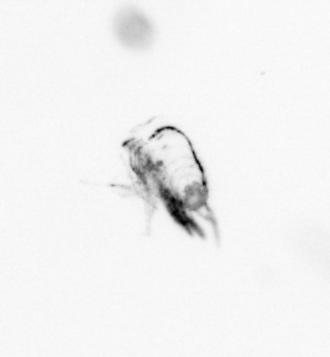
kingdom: Animalia
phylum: Arthropoda
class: Copepoda
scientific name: Copepoda
